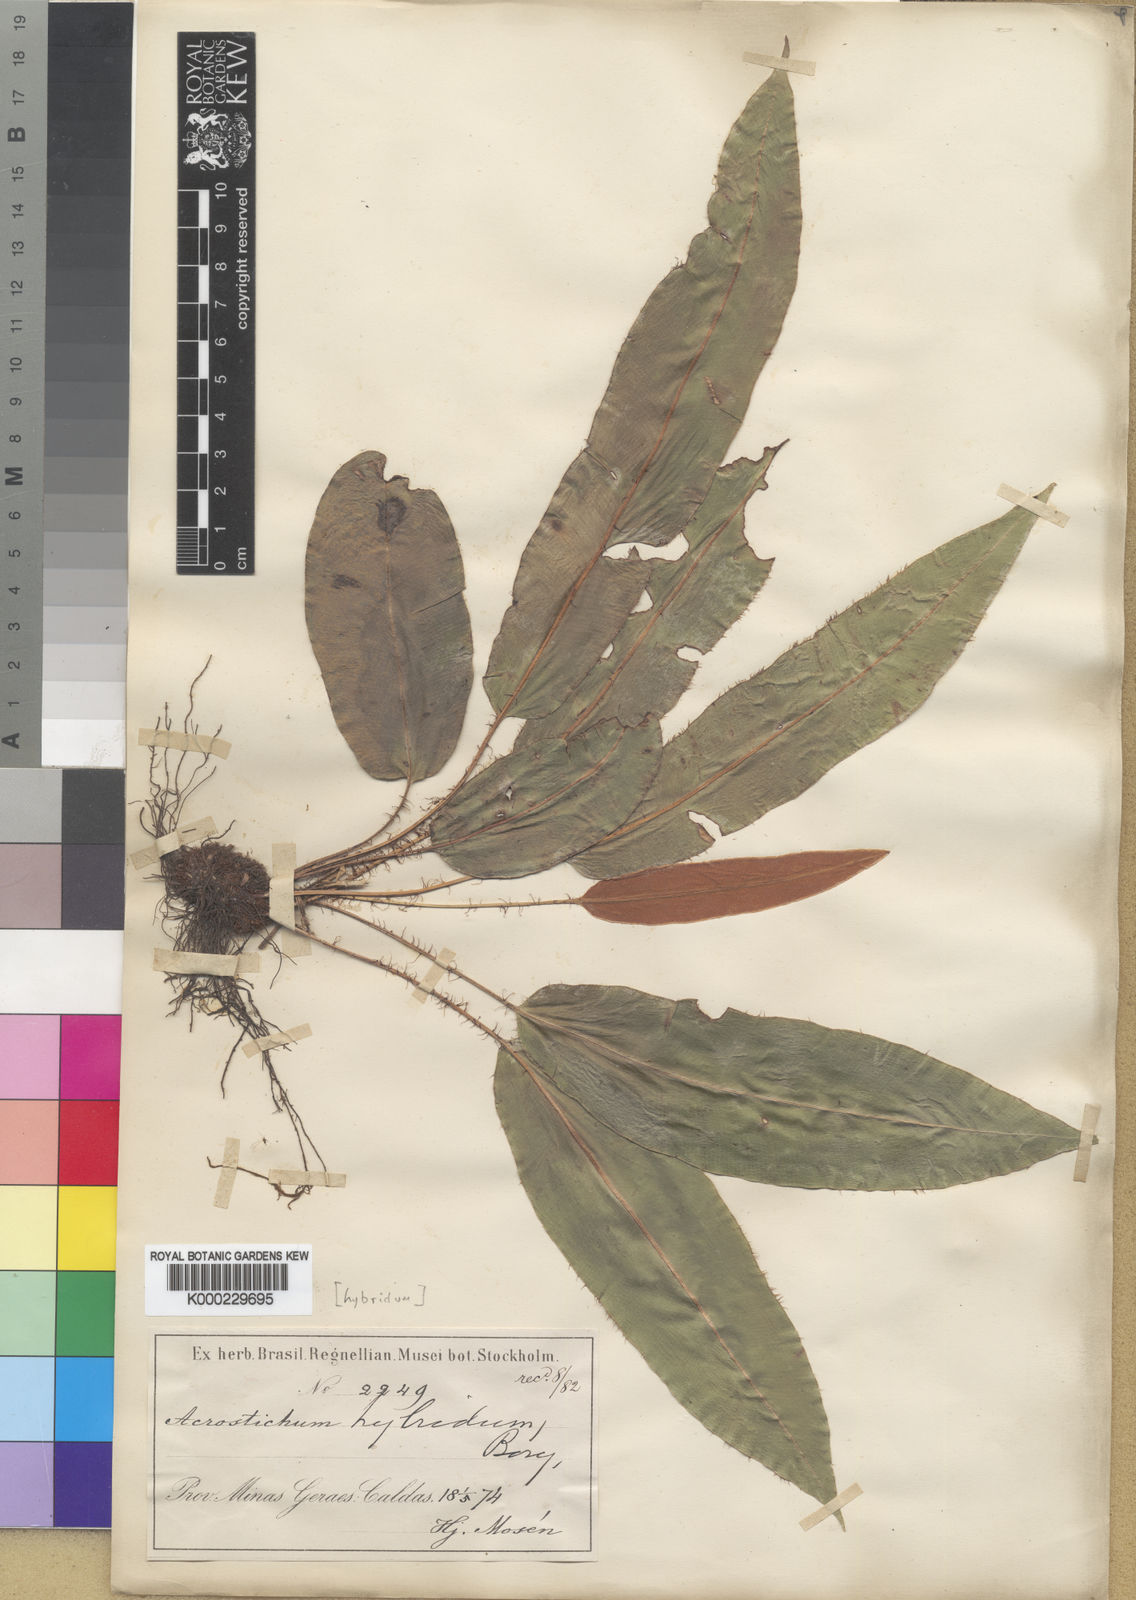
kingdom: Plantae
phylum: Tracheophyta
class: Polypodiopsida
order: Polypodiales
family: Dryopteridaceae
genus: Elaphoglossum
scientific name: Elaphoglossum hybridum
